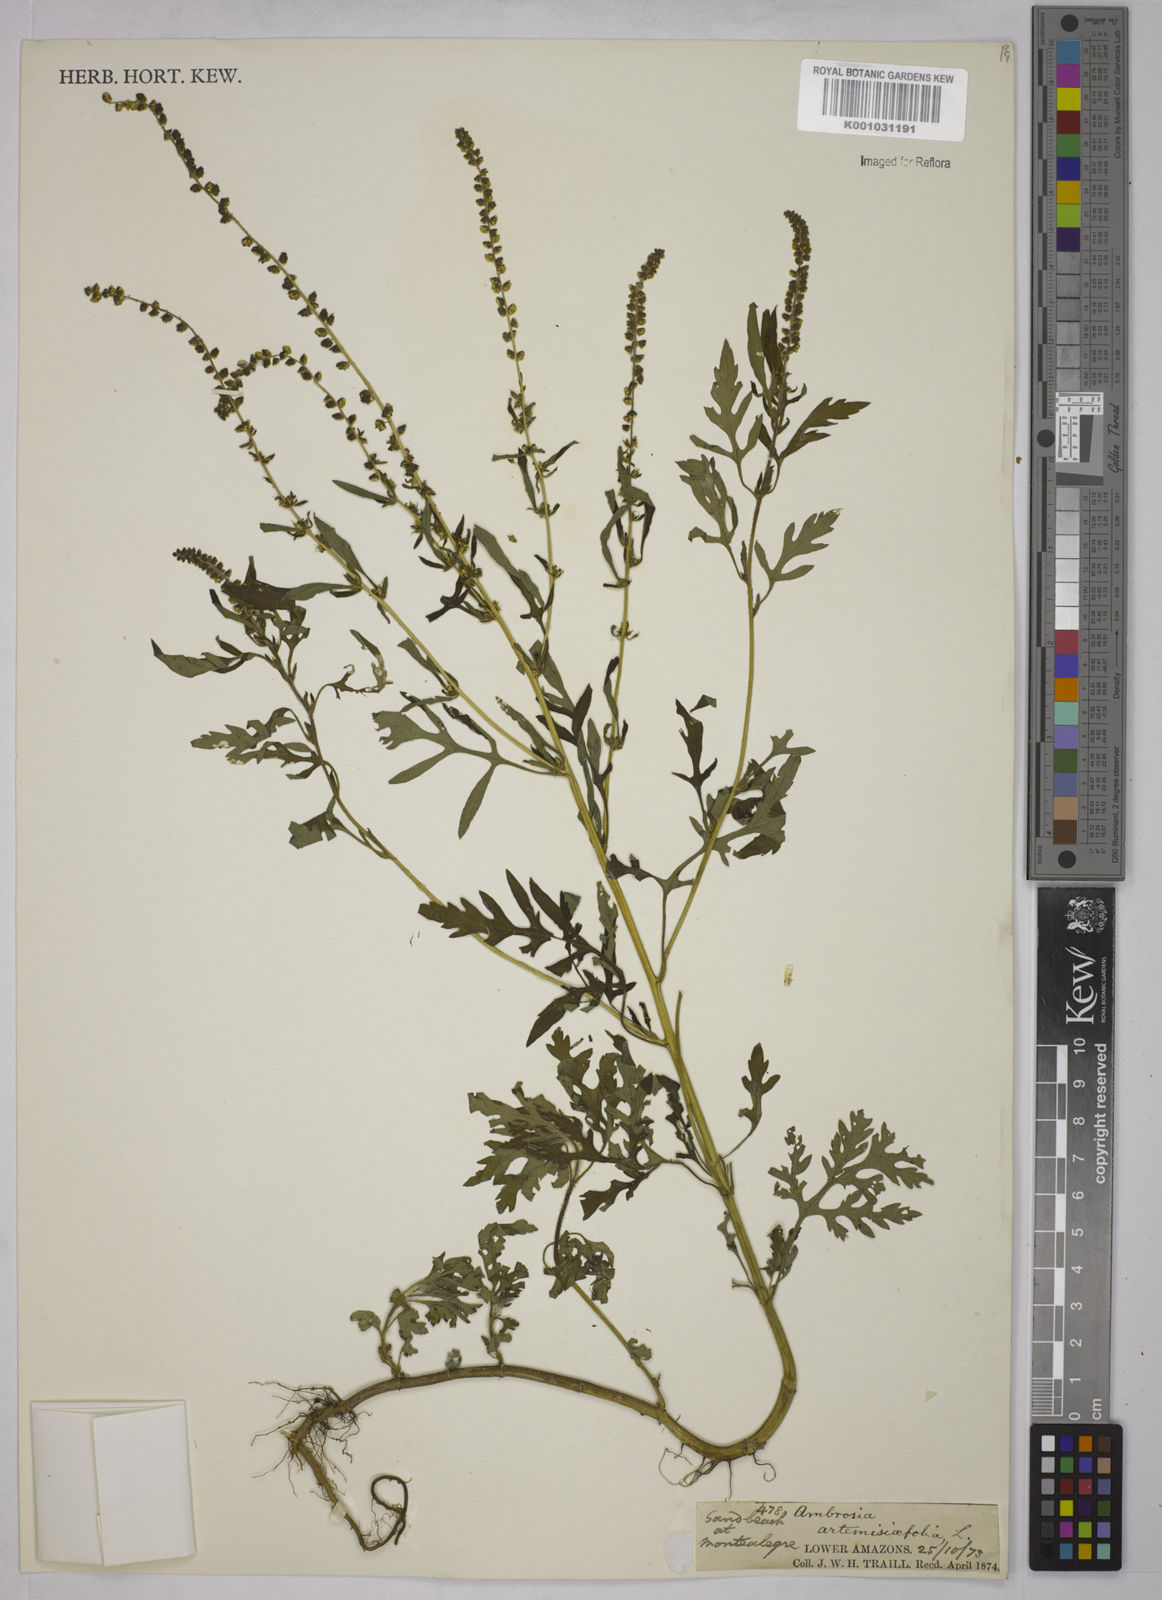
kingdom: Plantae
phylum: Tracheophyta
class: Magnoliopsida
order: Asterales
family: Asteraceae
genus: Ambrosia
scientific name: Ambrosia artemisiifolia
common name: Annual ragweed
